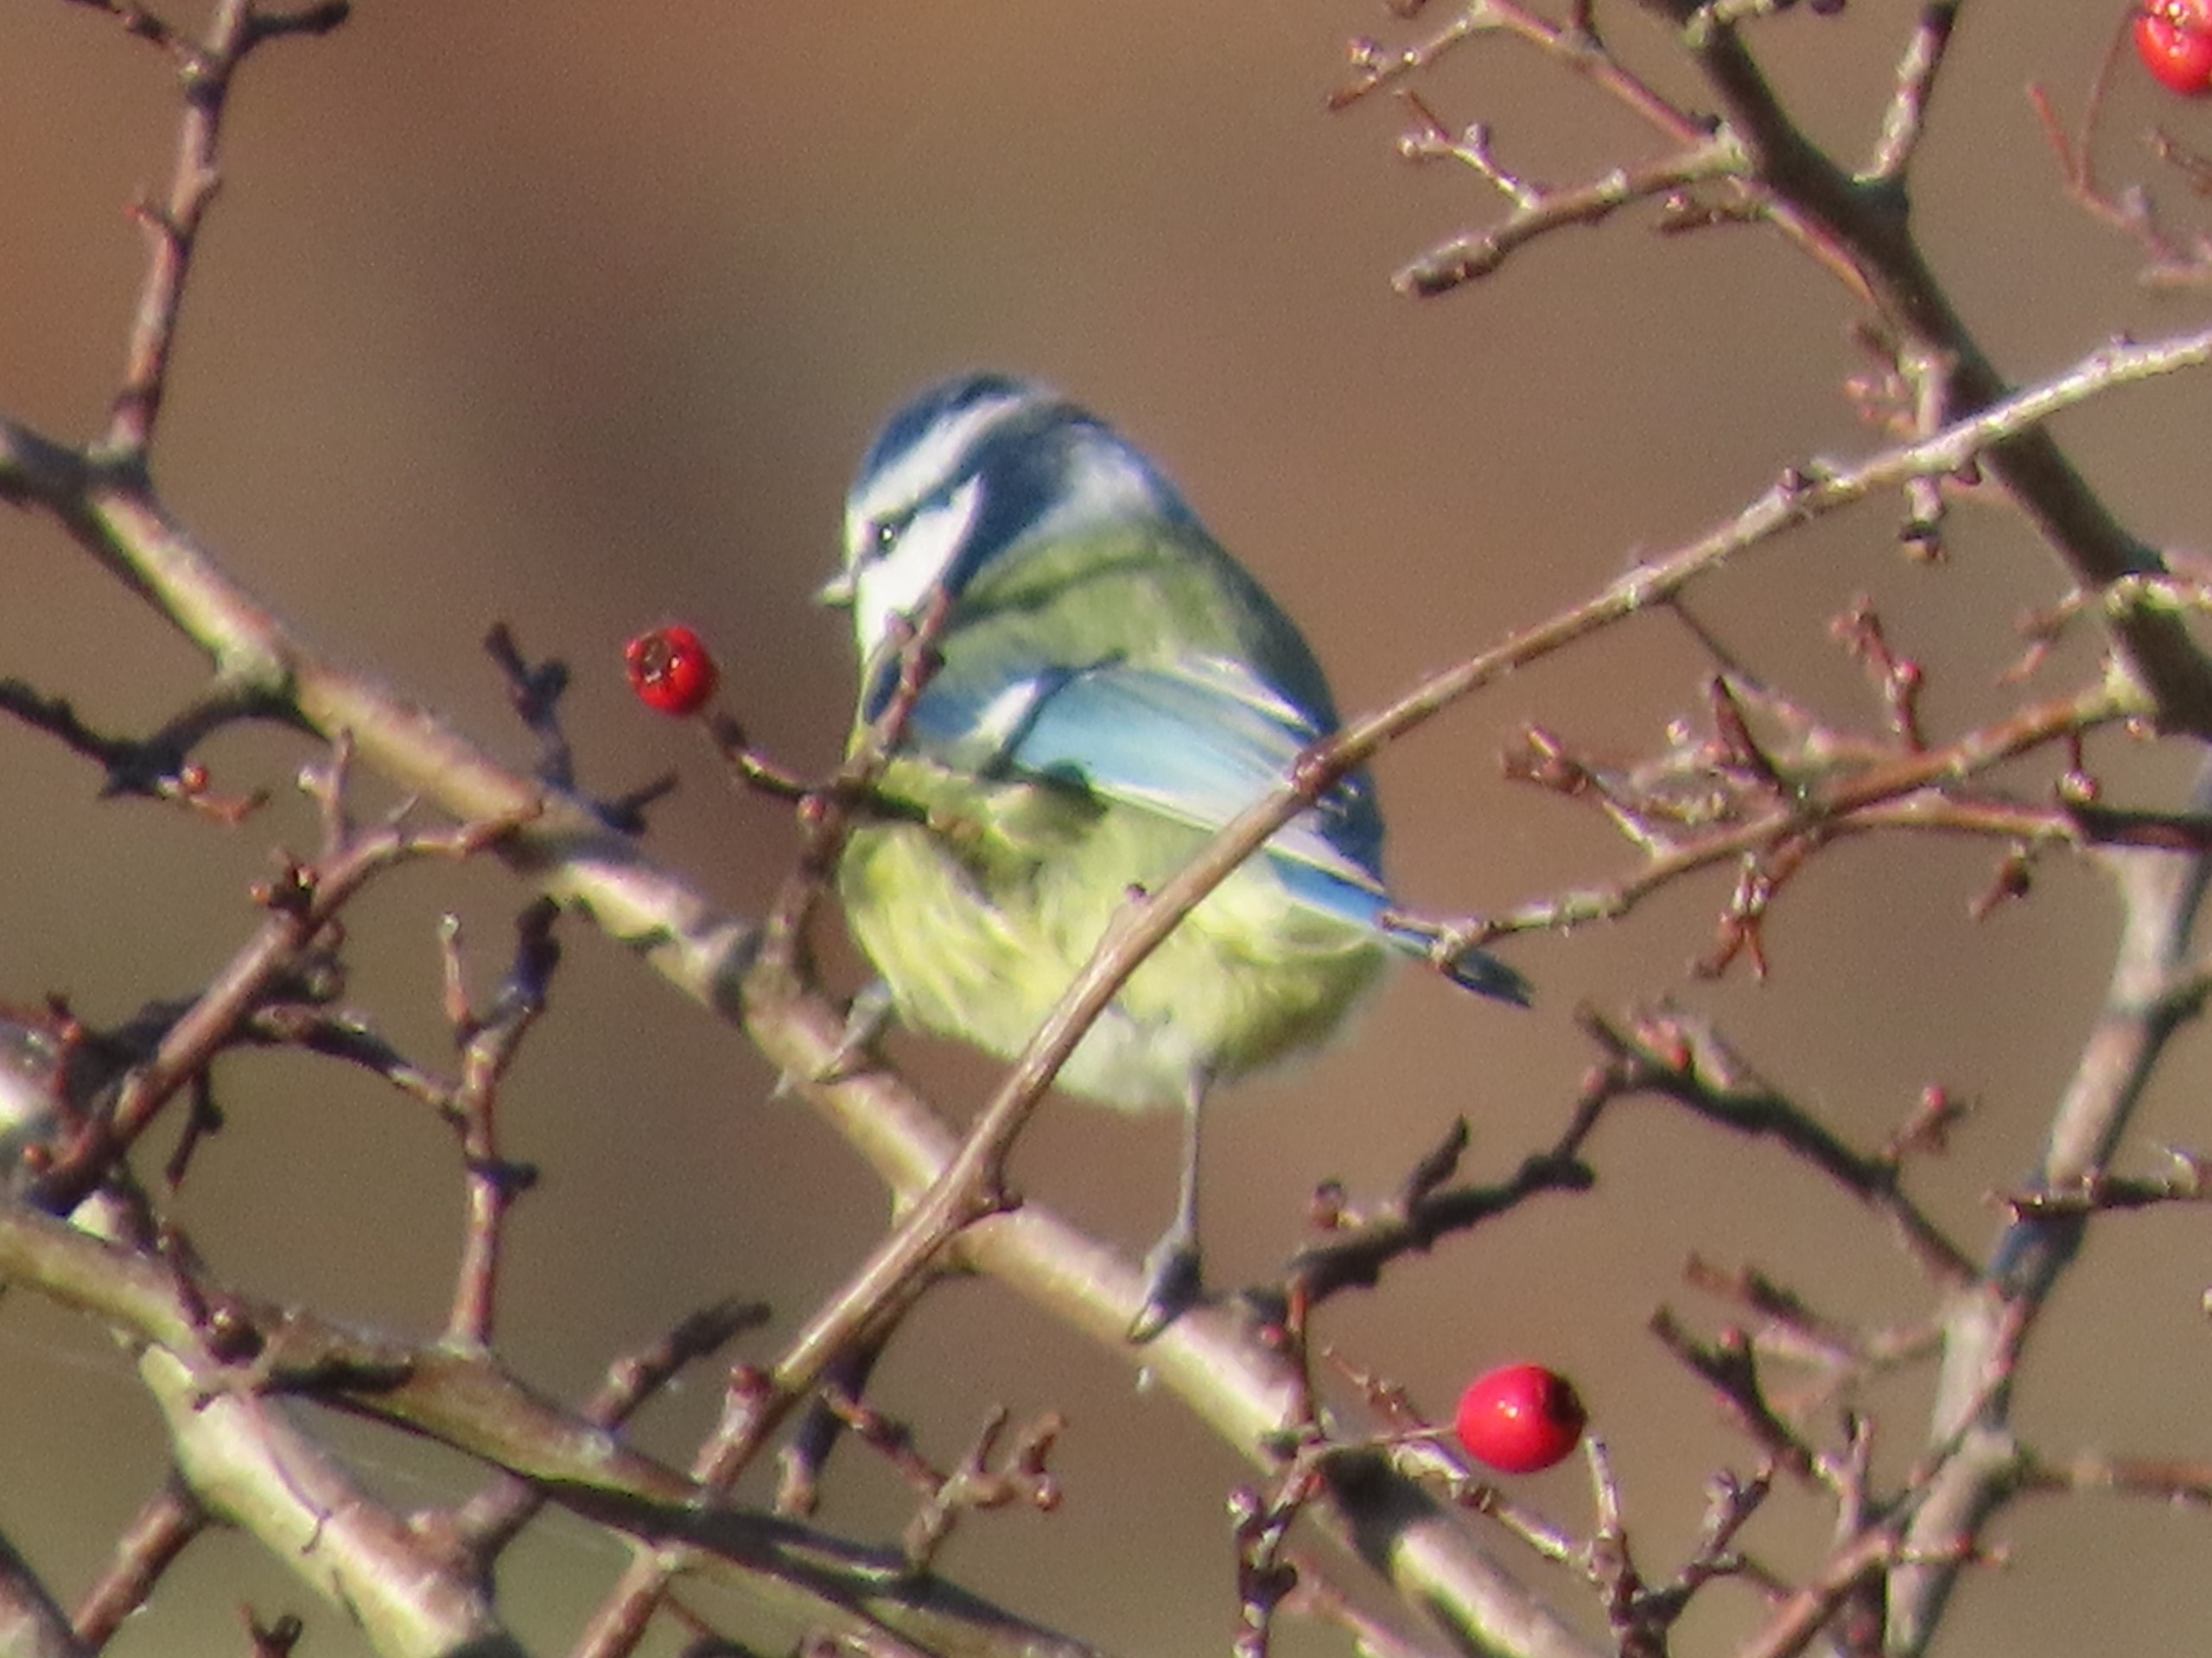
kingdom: Animalia
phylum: Chordata
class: Aves
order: Passeriformes
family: Paridae
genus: Cyanistes
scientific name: Cyanistes caeruleus
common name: Blåmejse
